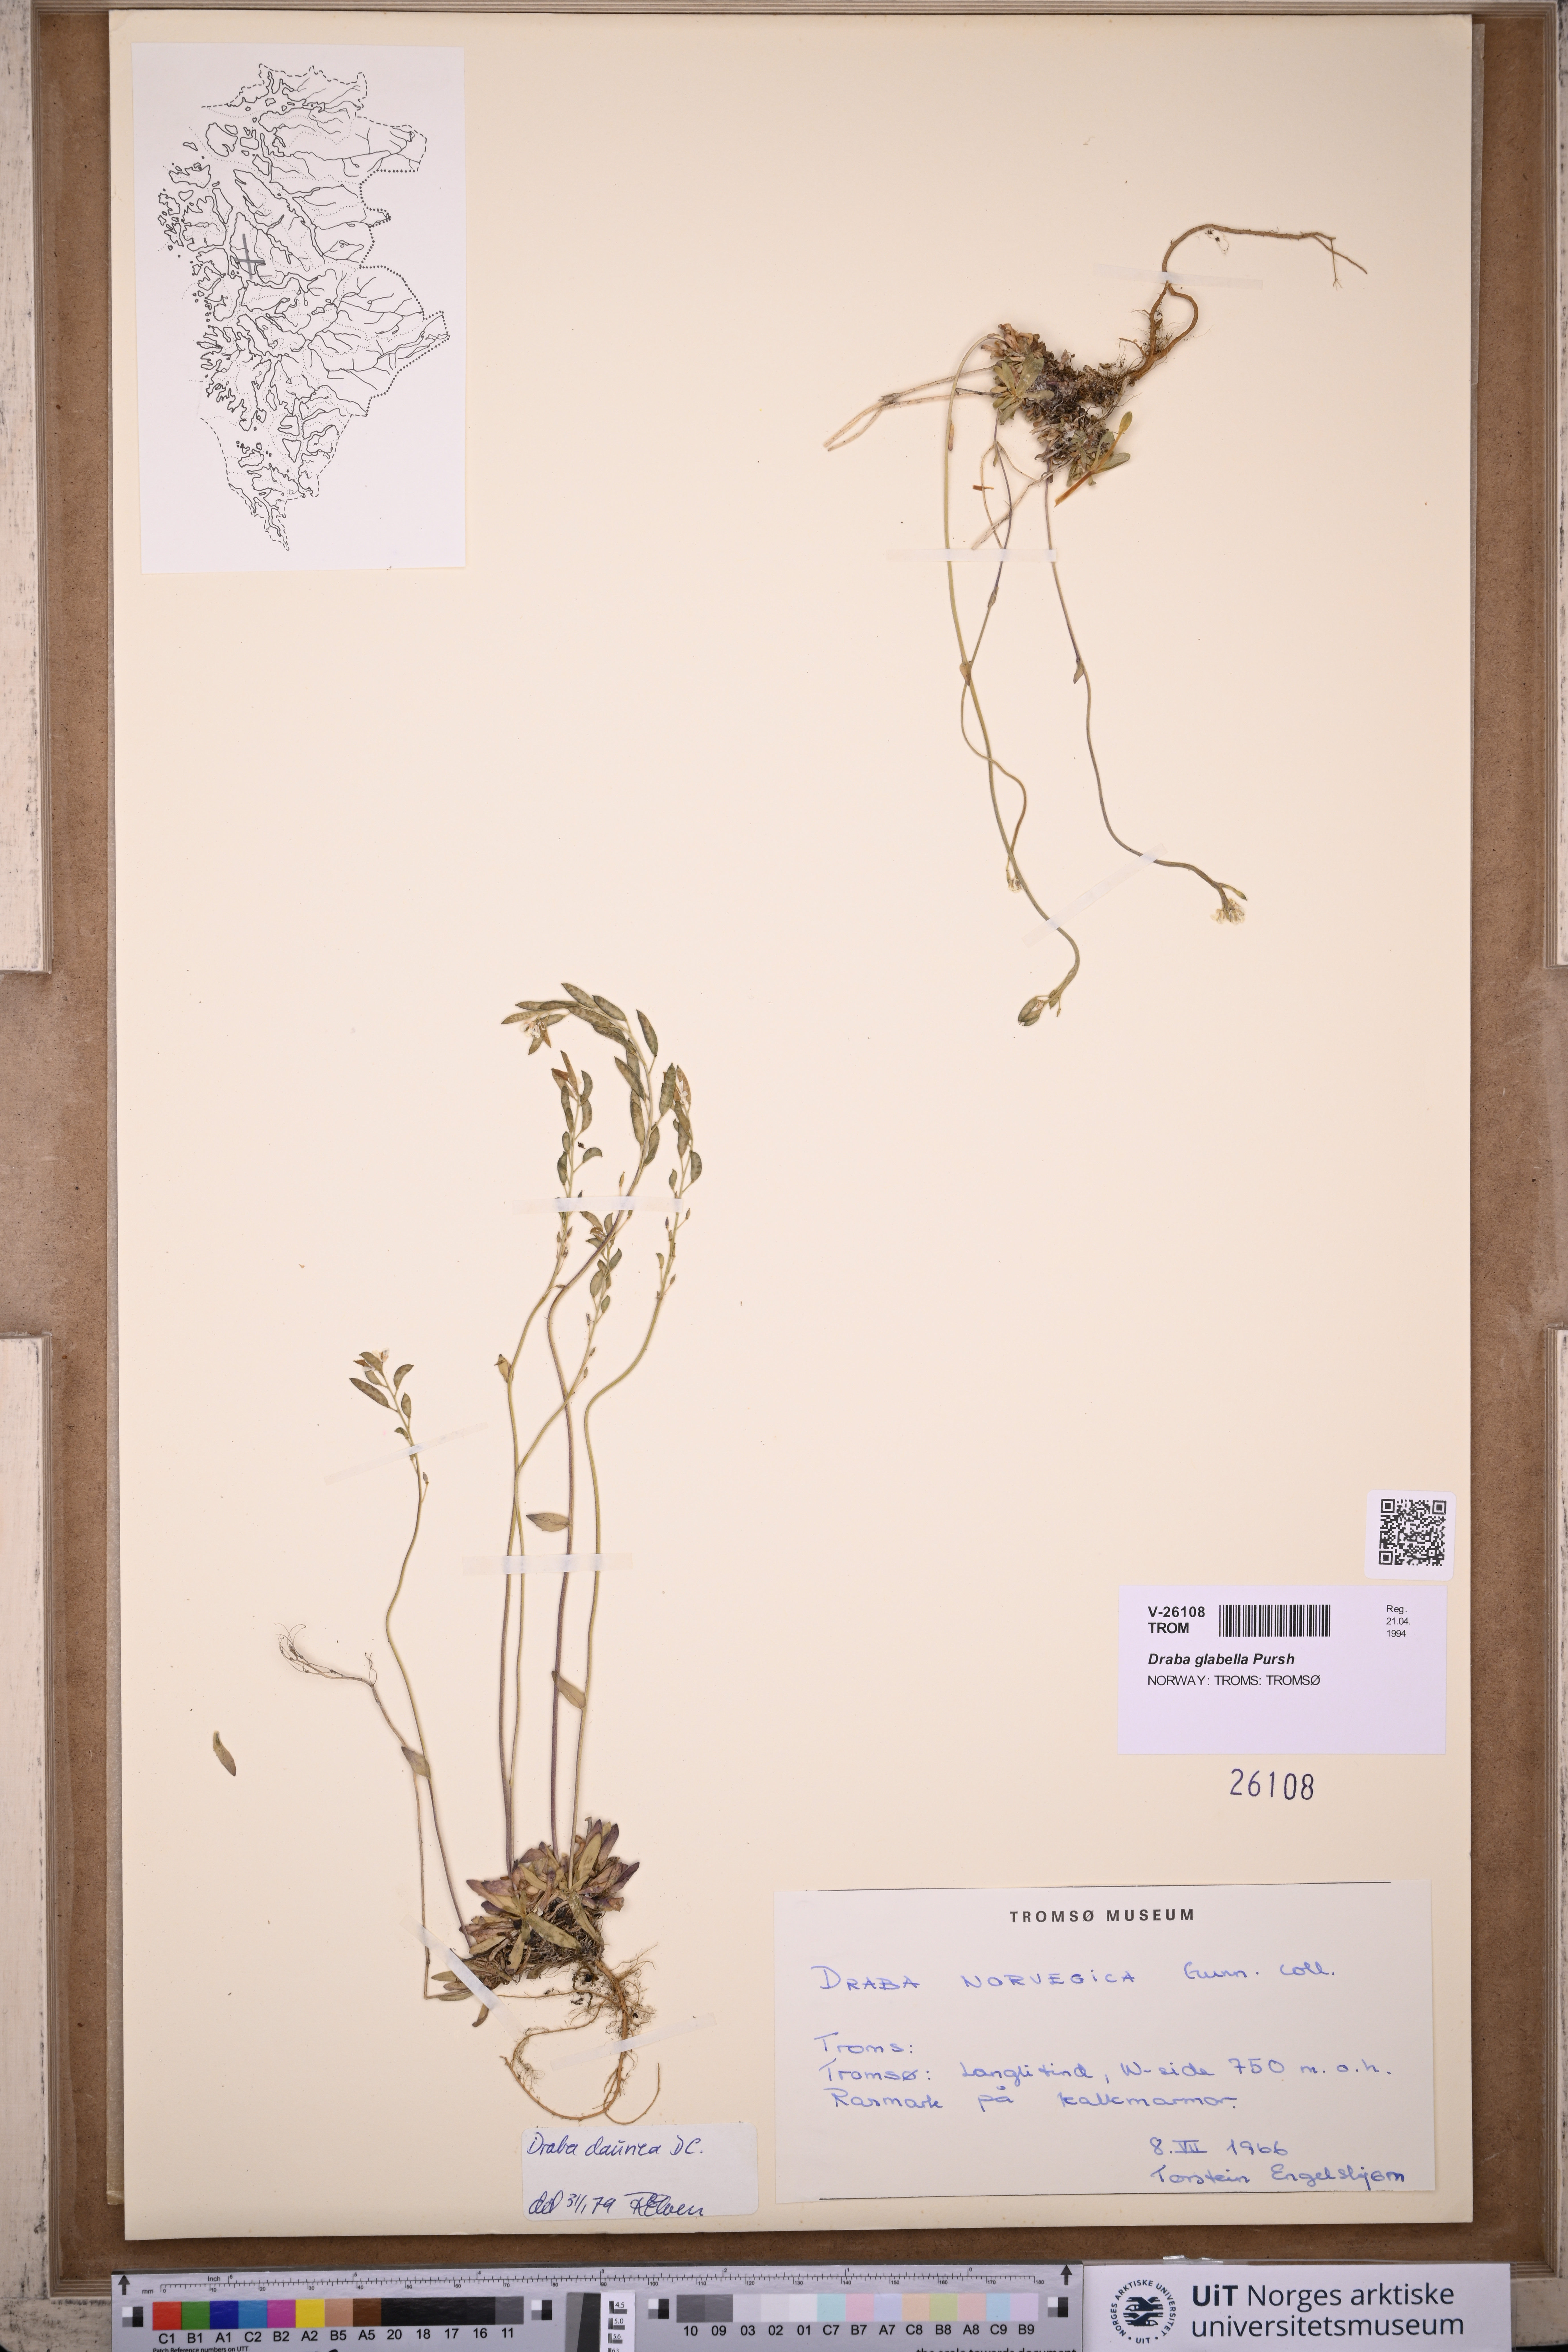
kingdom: Plantae
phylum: Tracheophyta
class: Magnoliopsida
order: Brassicales
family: Brassicaceae
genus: Draba
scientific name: Draba glabella
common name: Glaucous draba
